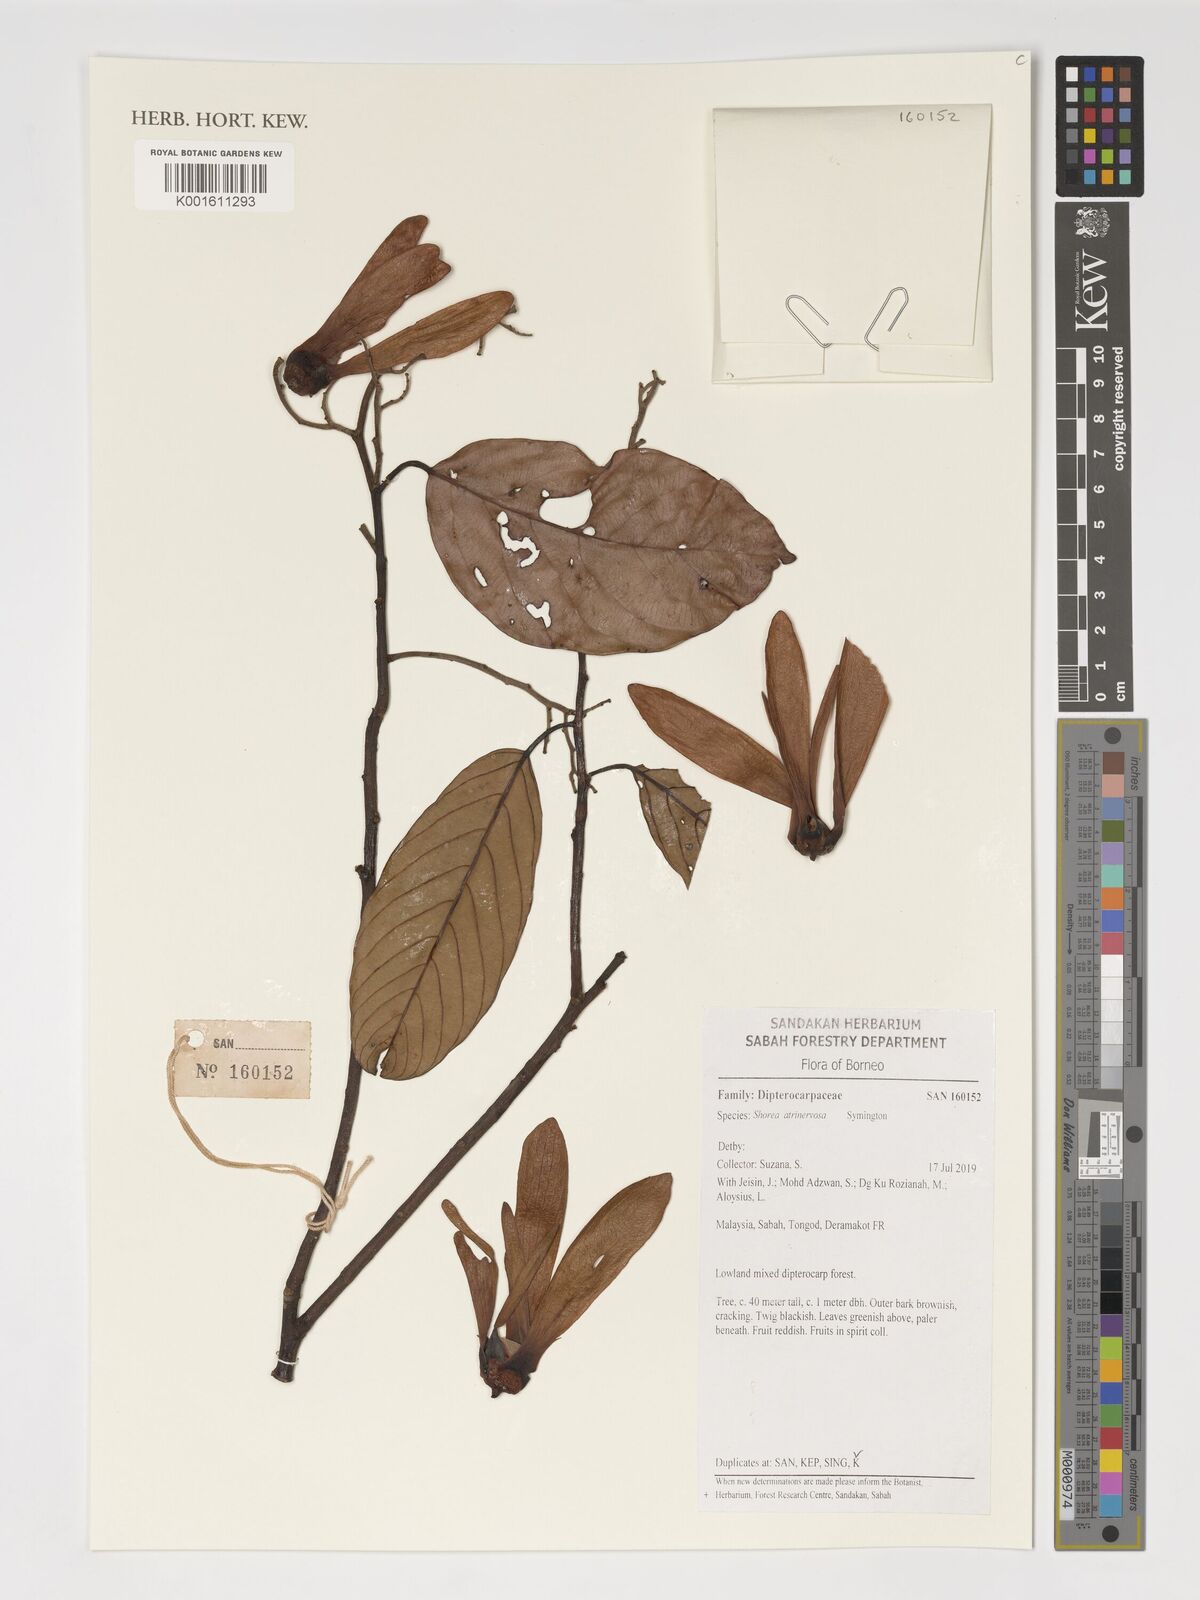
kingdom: Plantae
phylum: Tracheophyta
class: Magnoliopsida
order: Malvales
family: Dipterocarpaceae
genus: Shorea
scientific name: Shorea atrinervosa
